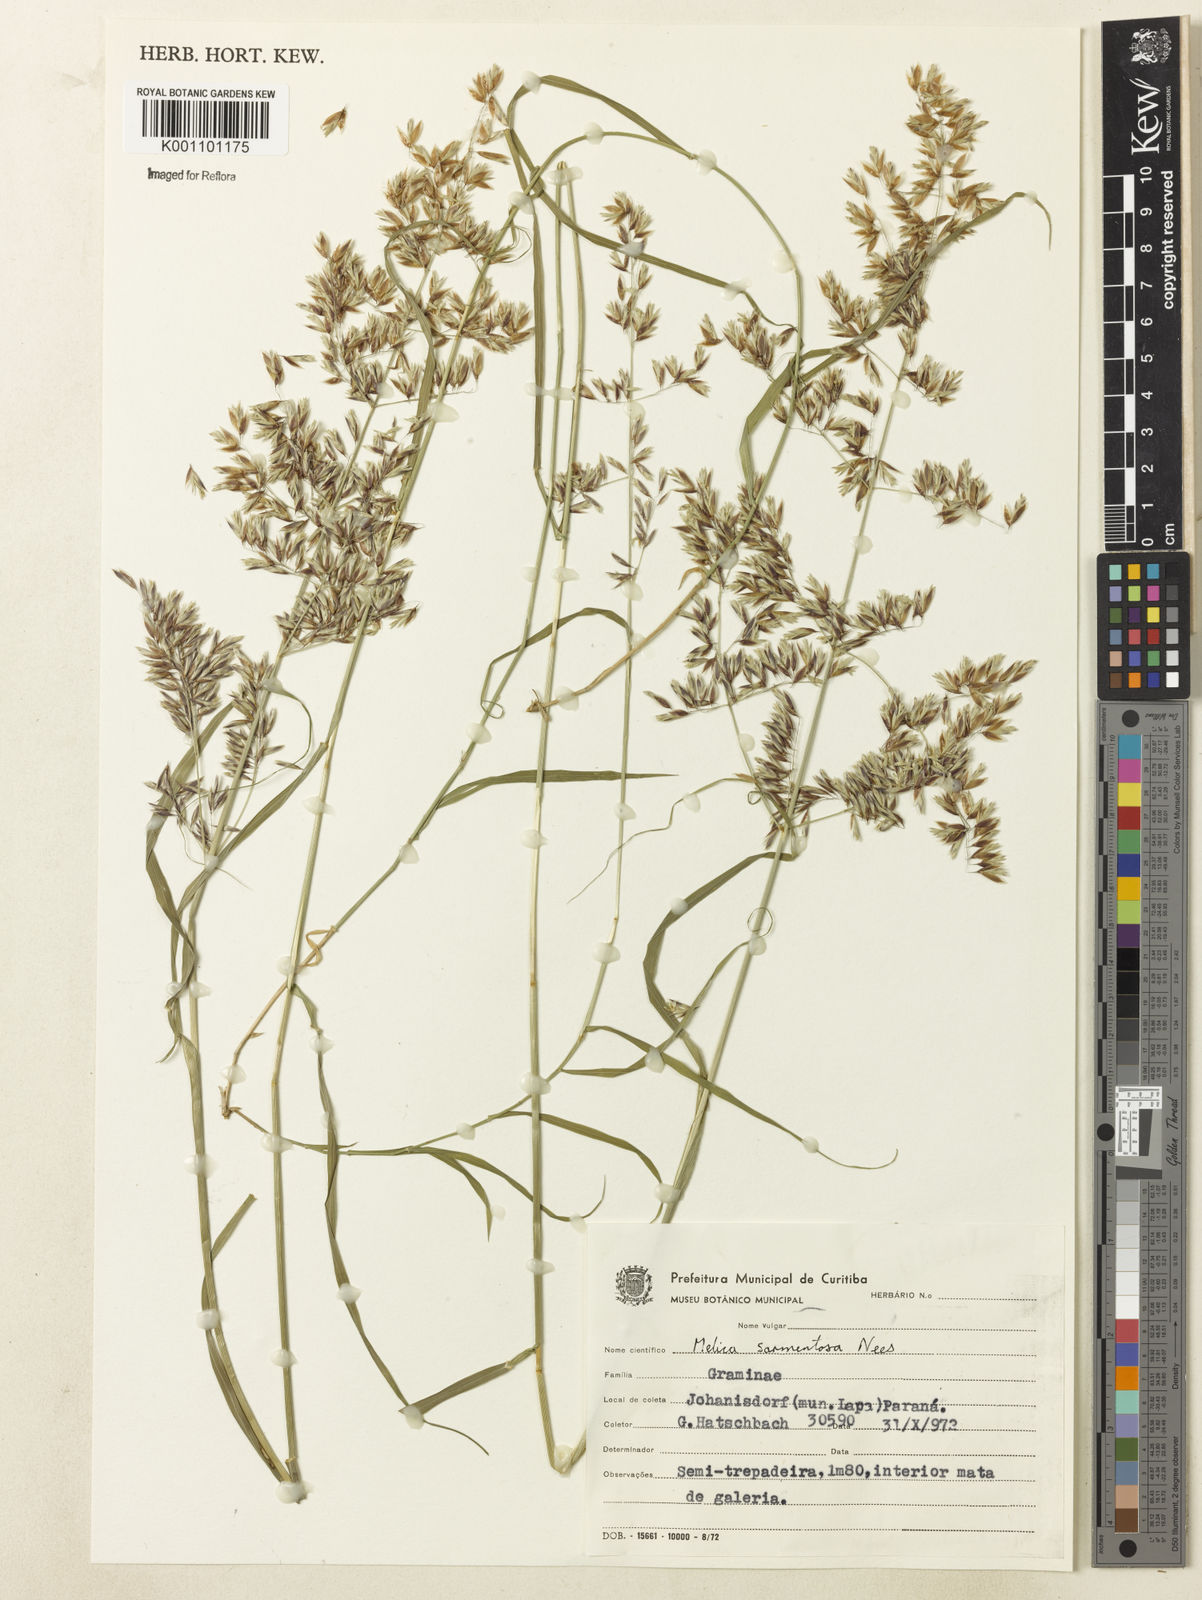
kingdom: Plantae
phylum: Tracheophyta
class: Liliopsida
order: Poales
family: Poaceae
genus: Melica
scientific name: Melica sarmentosa
